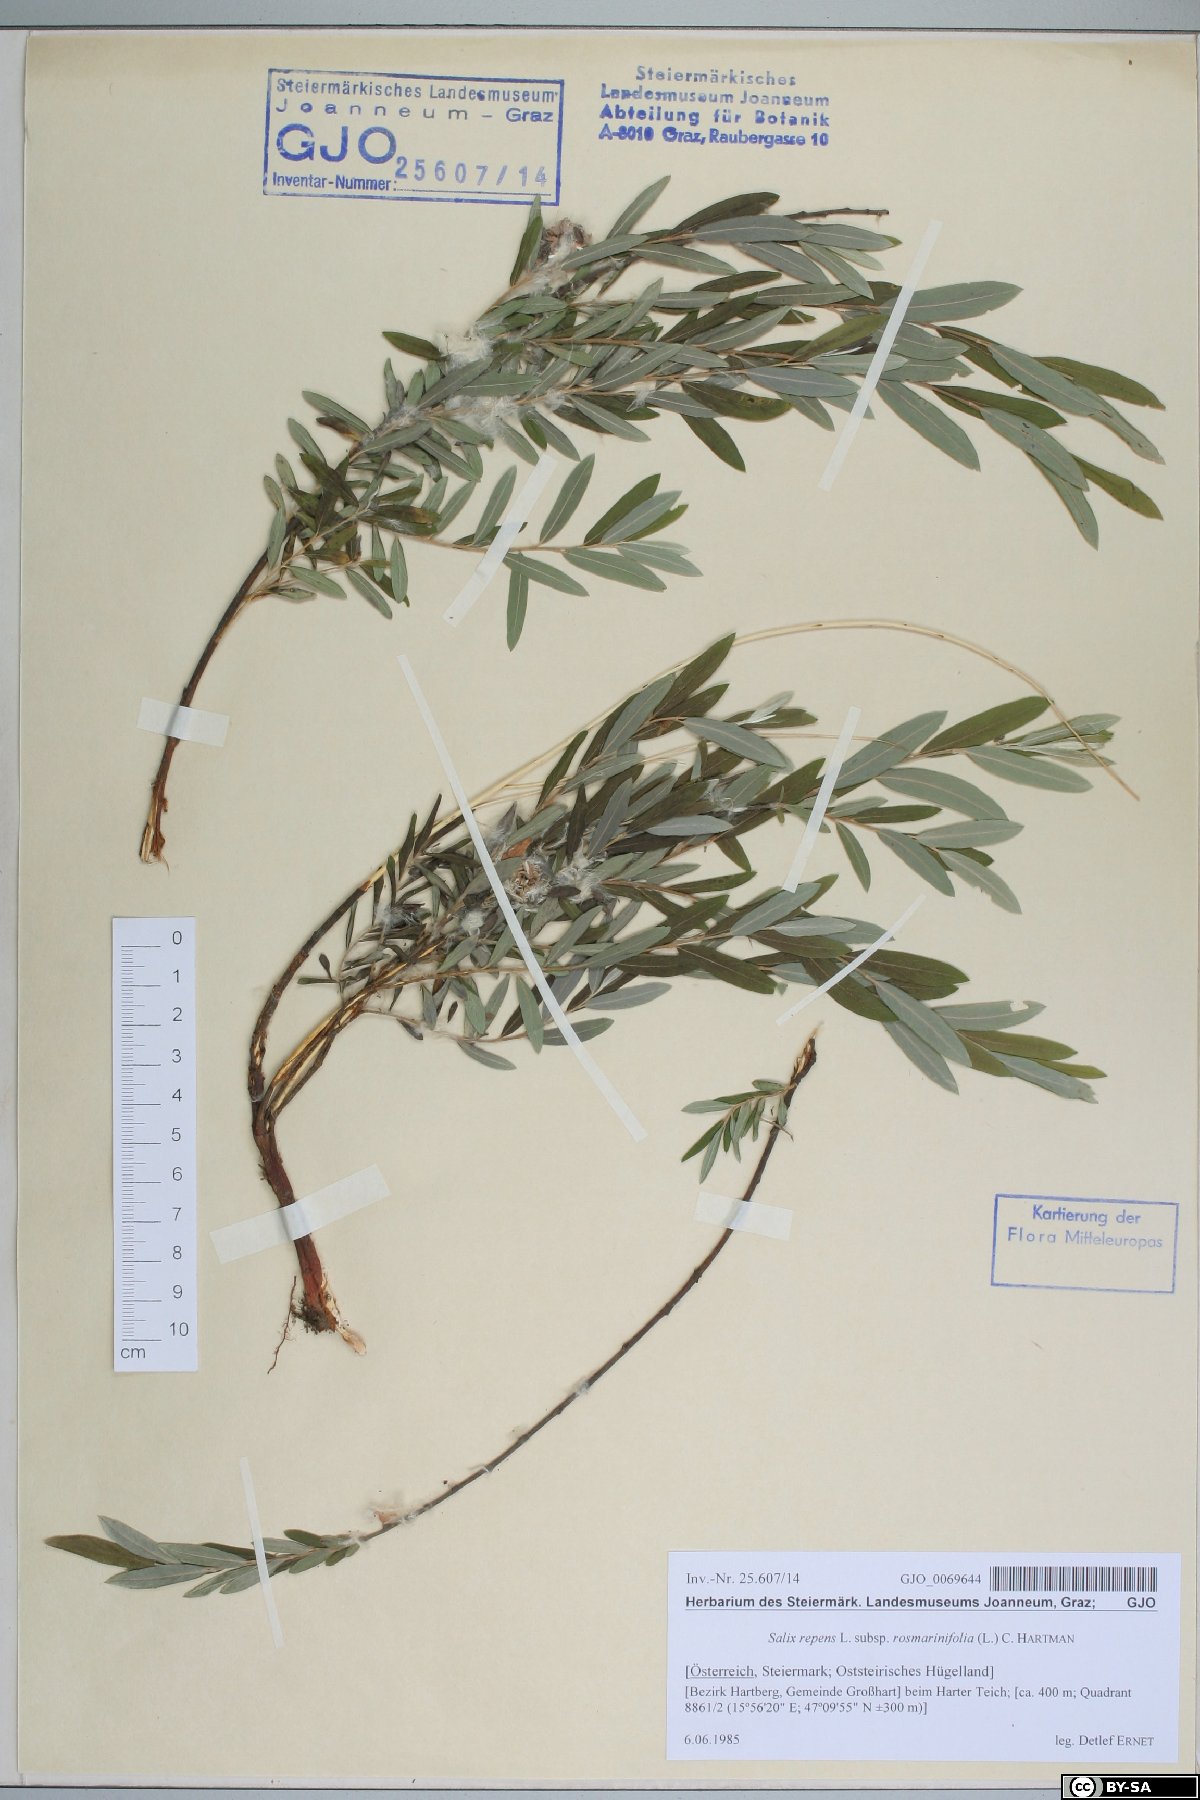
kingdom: Plantae
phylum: Tracheophyta
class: Magnoliopsida
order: Malpighiales
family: Salicaceae
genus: Salix
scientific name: Salix repens
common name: Creeping willow
